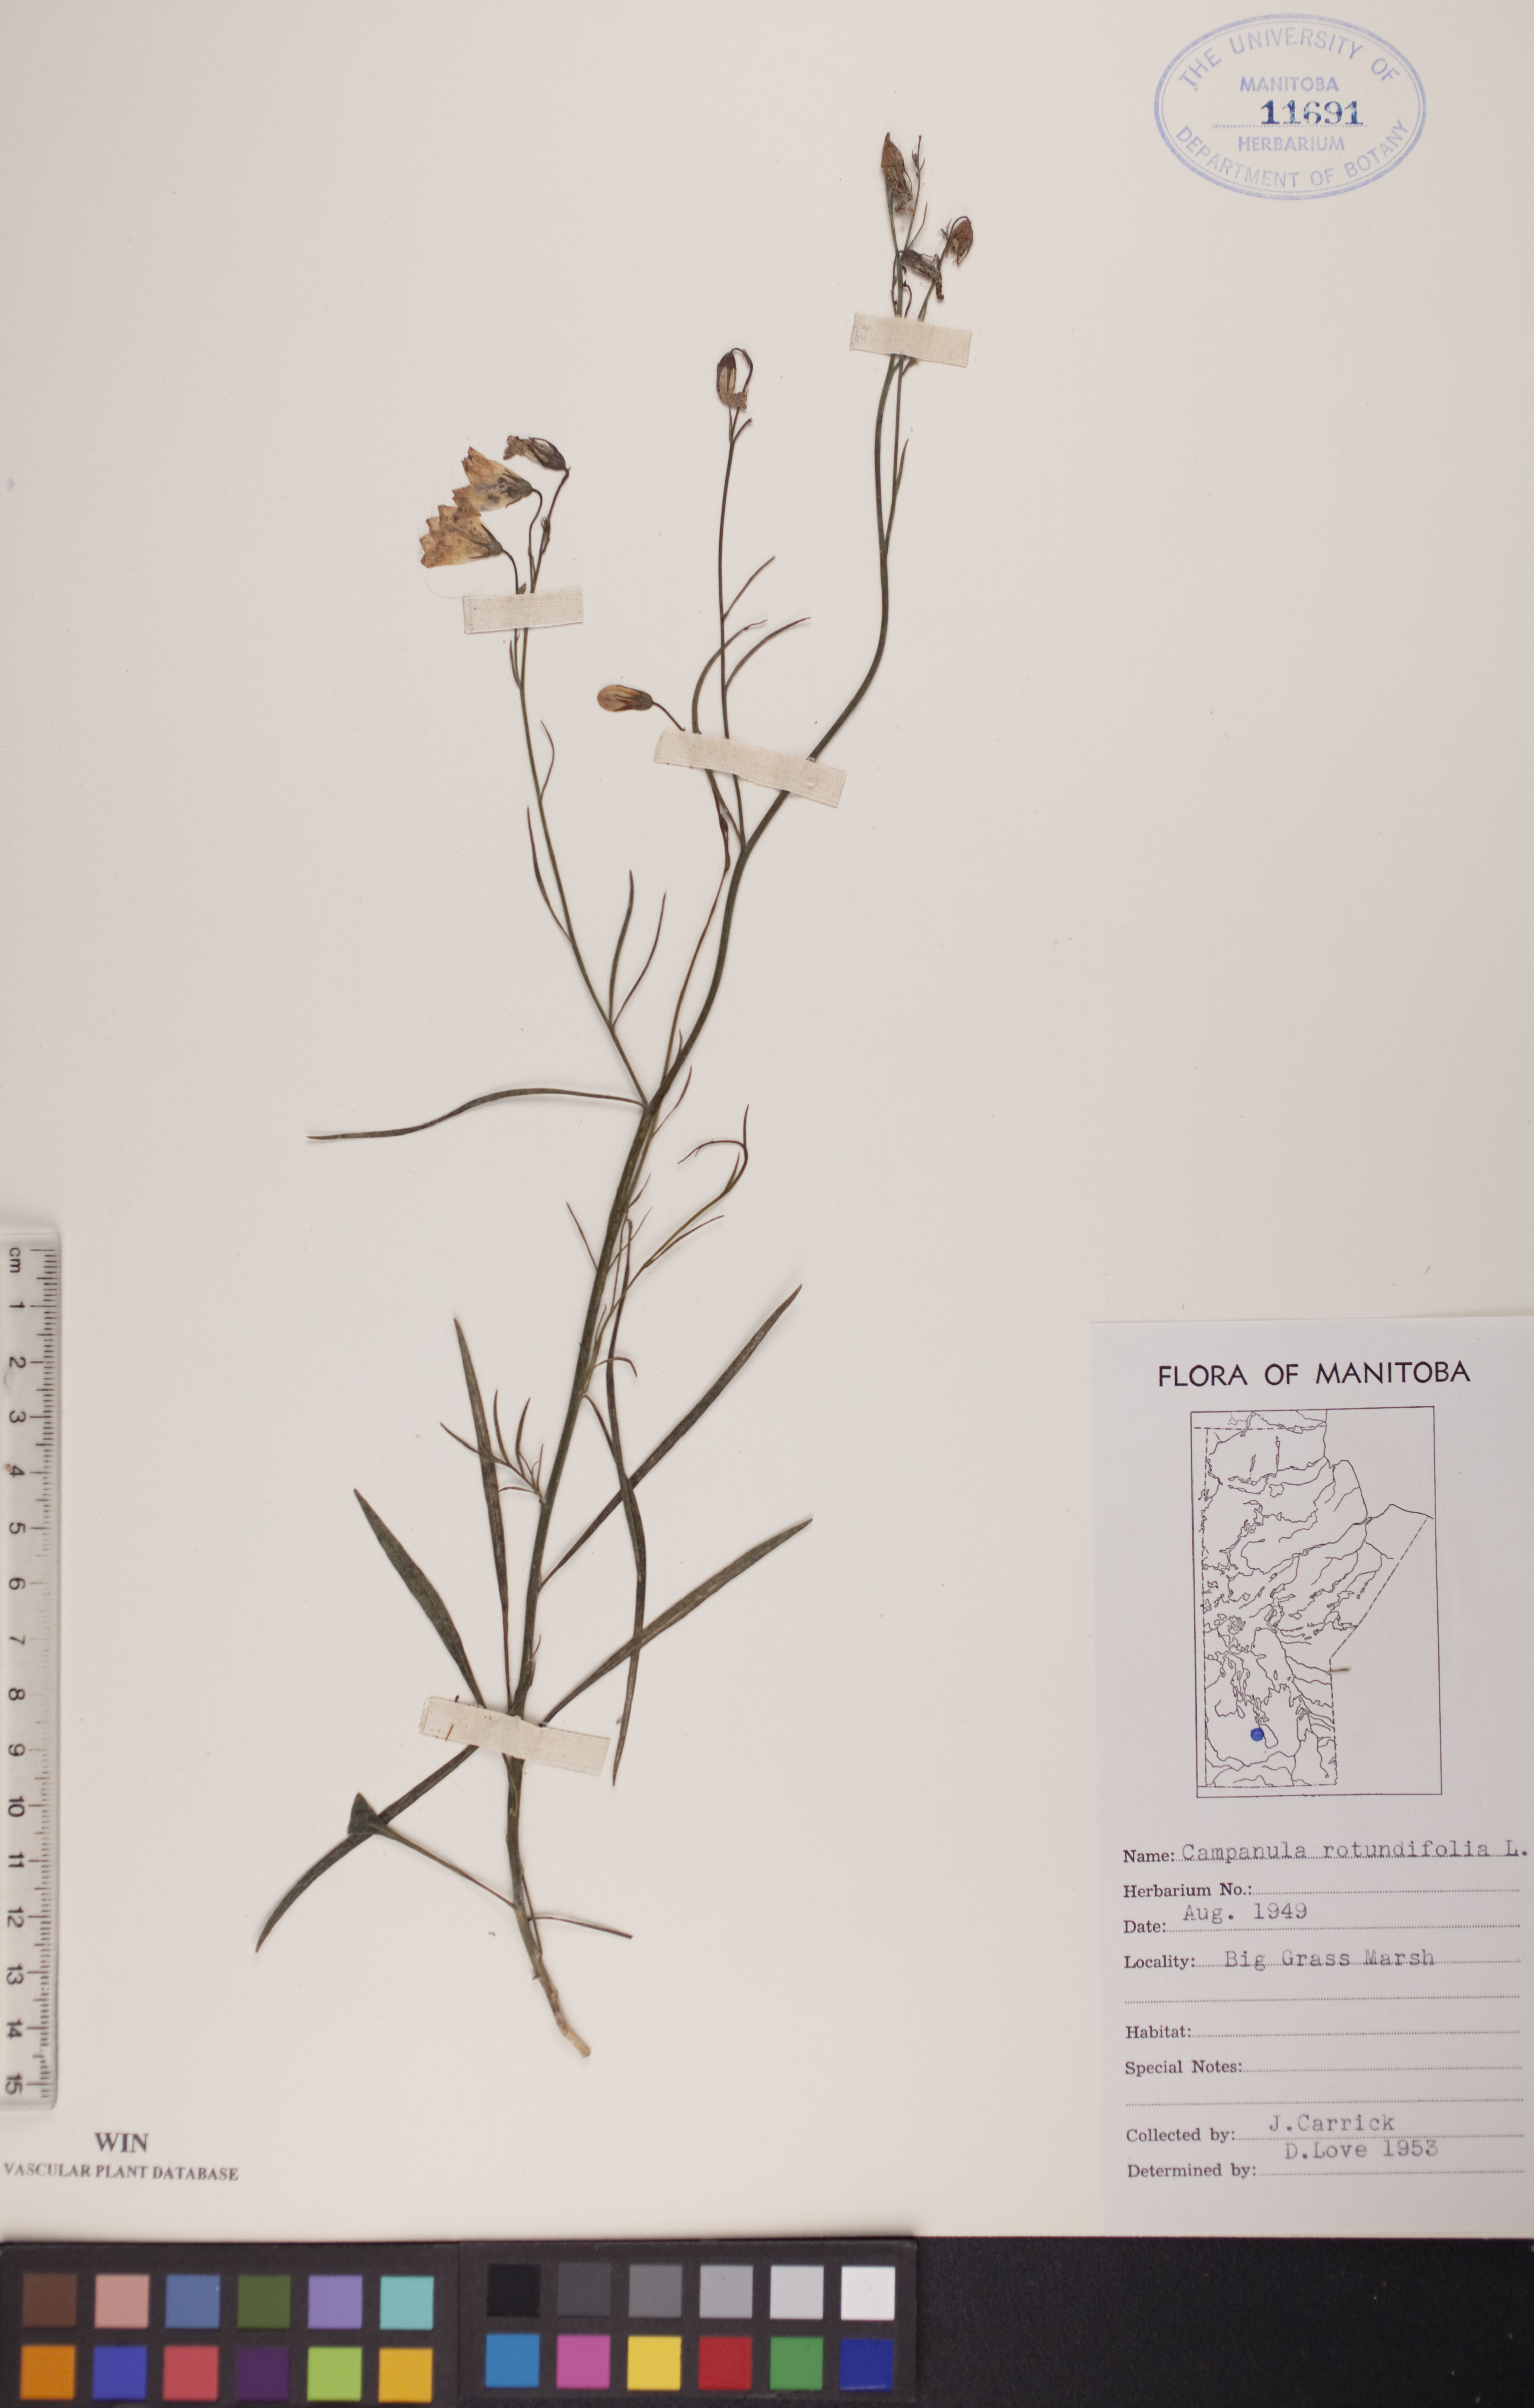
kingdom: Plantae
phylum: Tracheophyta
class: Magnoliopsida
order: Asterales
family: Campanulaceae
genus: Campanula
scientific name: Campanula rotundifolia
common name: Harebell
